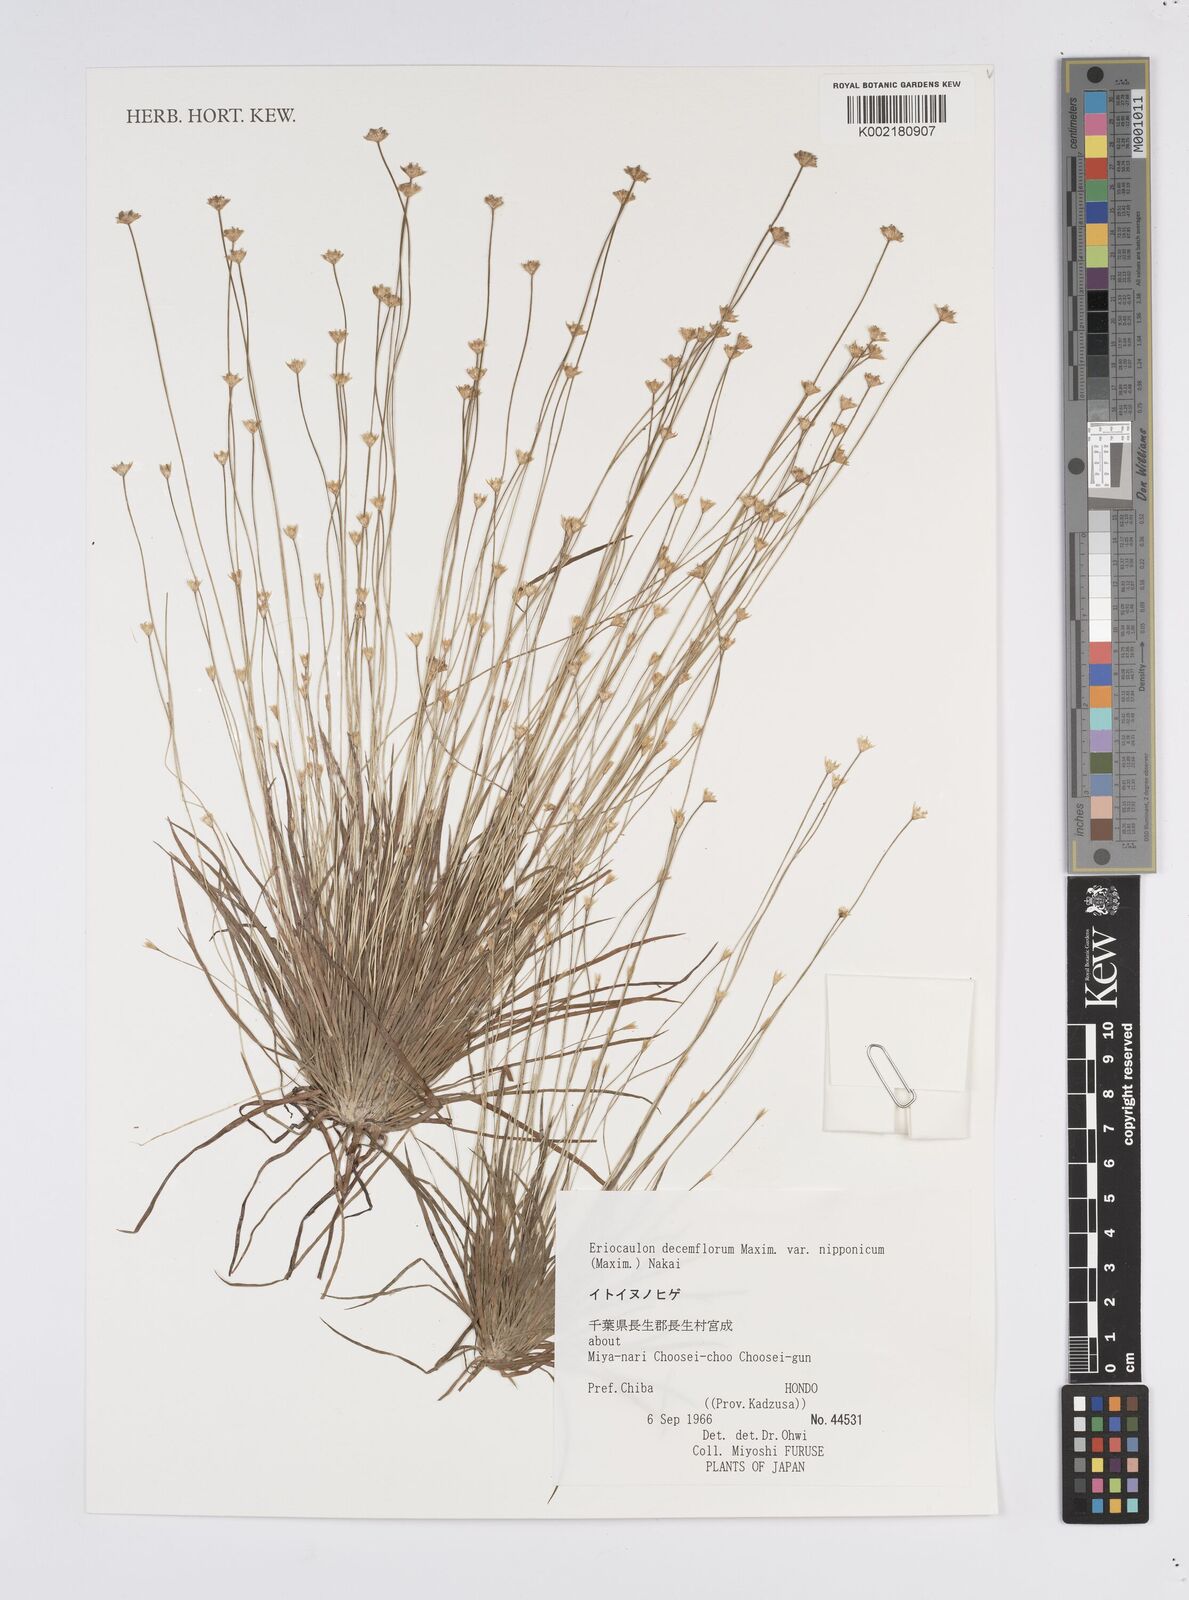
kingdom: Plantae
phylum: Tracheophyta
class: Liliopsida
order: Poales
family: Eriocaulaceae
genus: Eriocaulon
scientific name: Eriocaulon decemflorum
